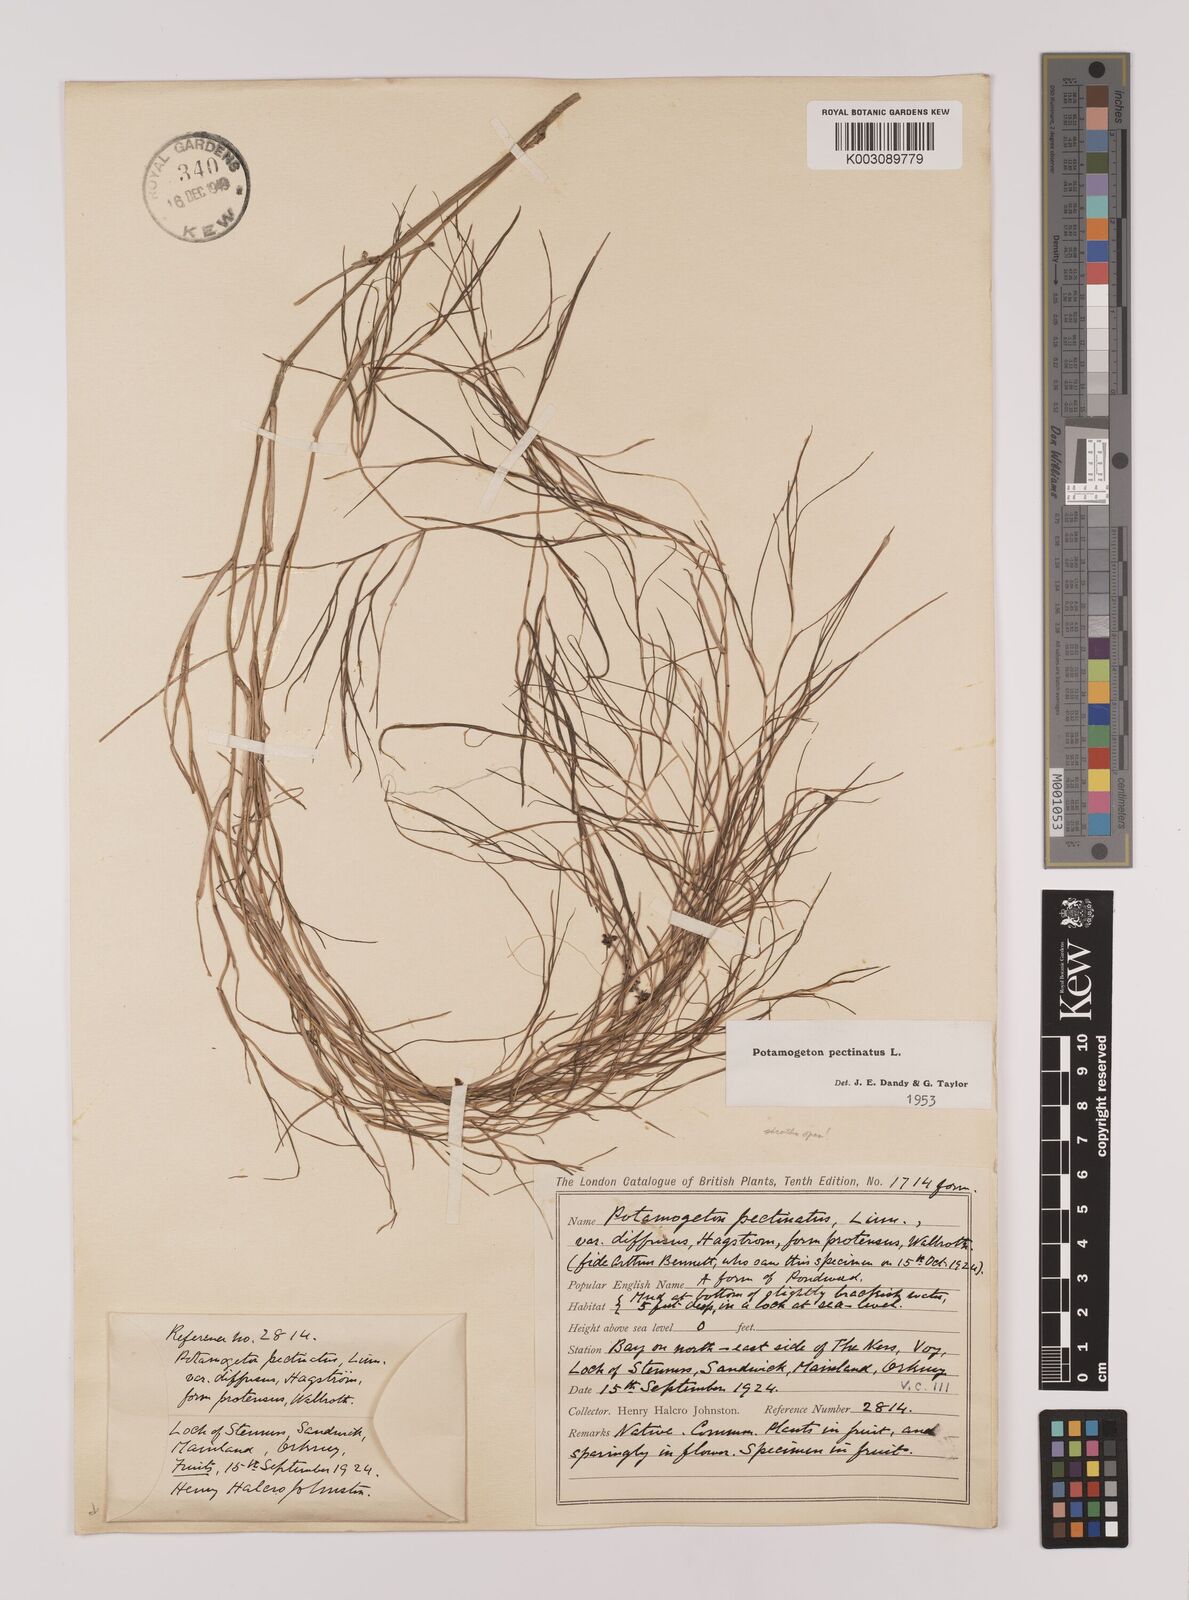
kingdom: Plantae
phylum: Tracheophyta
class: Liliopsida
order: Alismatales
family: Potamogetonaceae
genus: Stuckenia
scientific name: Stuckenia pectinata
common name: Sago pondweed
